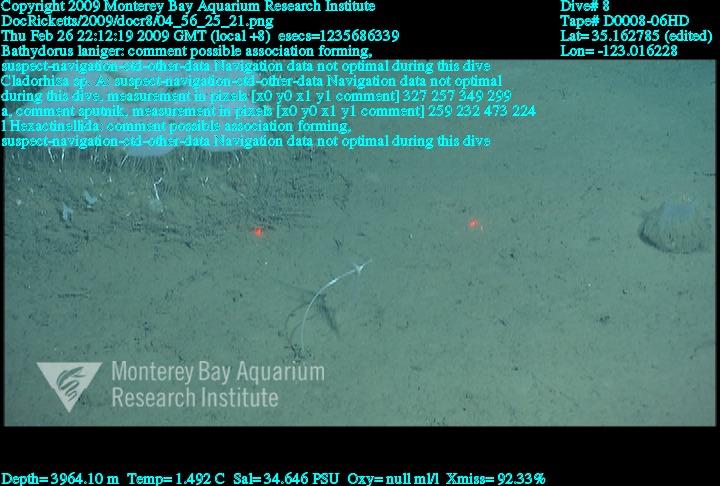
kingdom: Animalia
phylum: Porifera
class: Hexactinellida
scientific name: Hexactinellida
